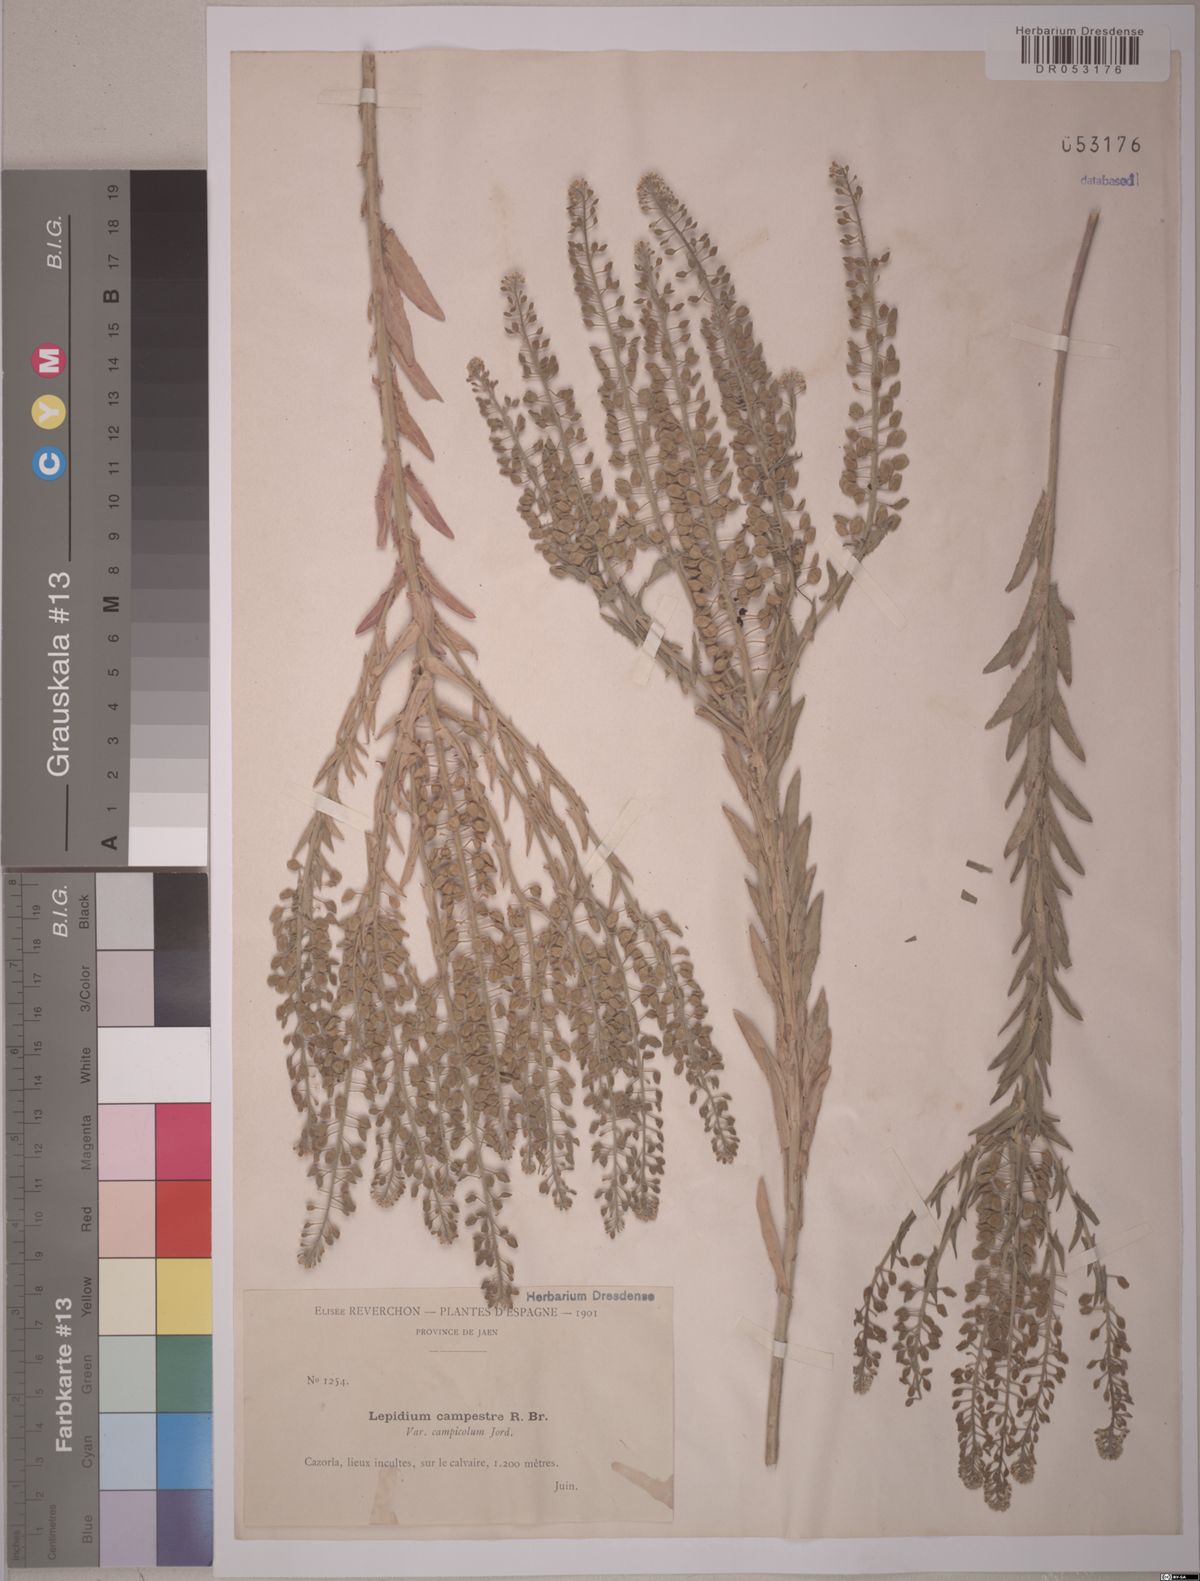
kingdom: Plantae
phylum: Tracheophyta
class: Magnoliopsida
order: Brassicales
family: Brassicaceae
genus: Lepidium
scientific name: Lepidium campestre
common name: Field pepperwort
